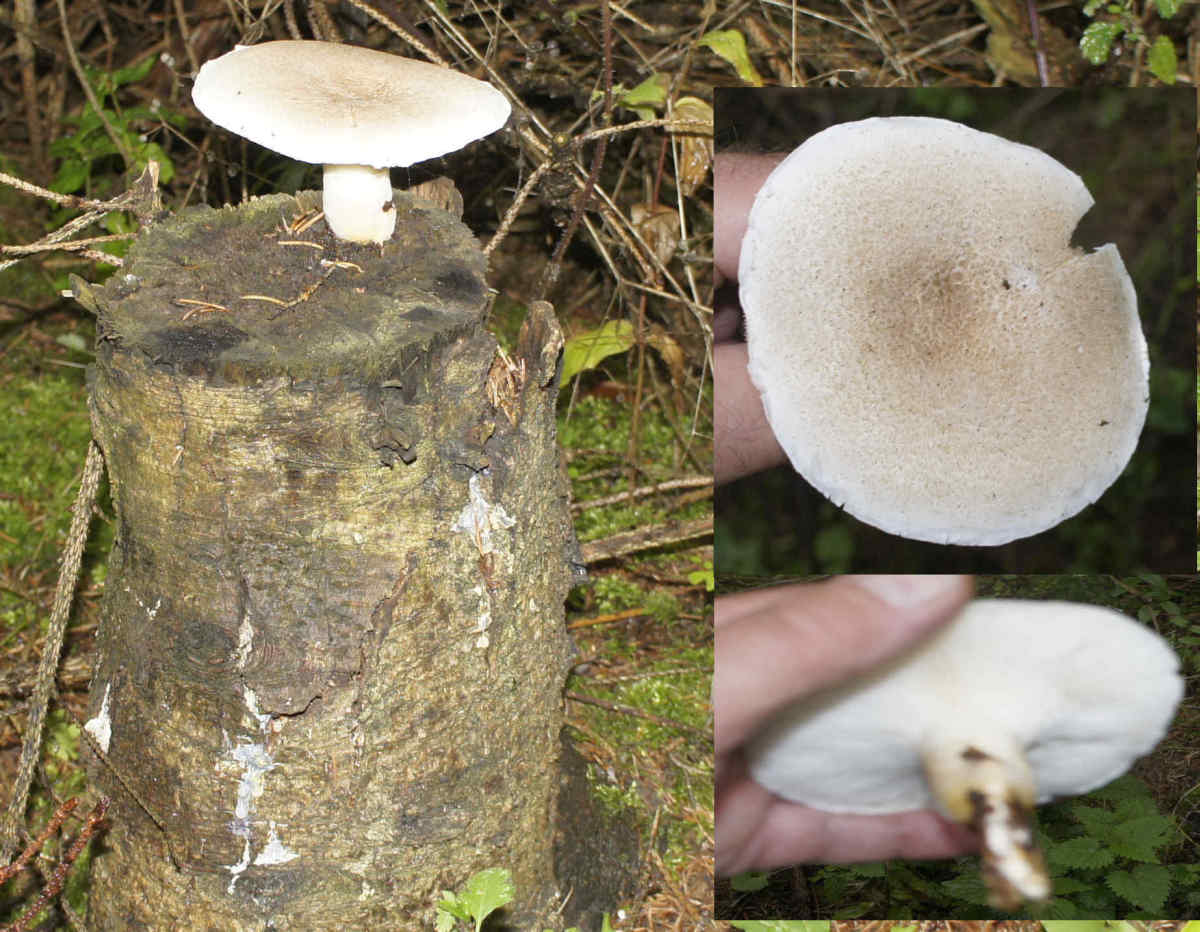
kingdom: Fungi
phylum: Basidiomycota
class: Agaricomycetes
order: Agaricales
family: Pleurotaceae
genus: Pleurotus
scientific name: Pleurotus dryinus
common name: korkagtig østershat
